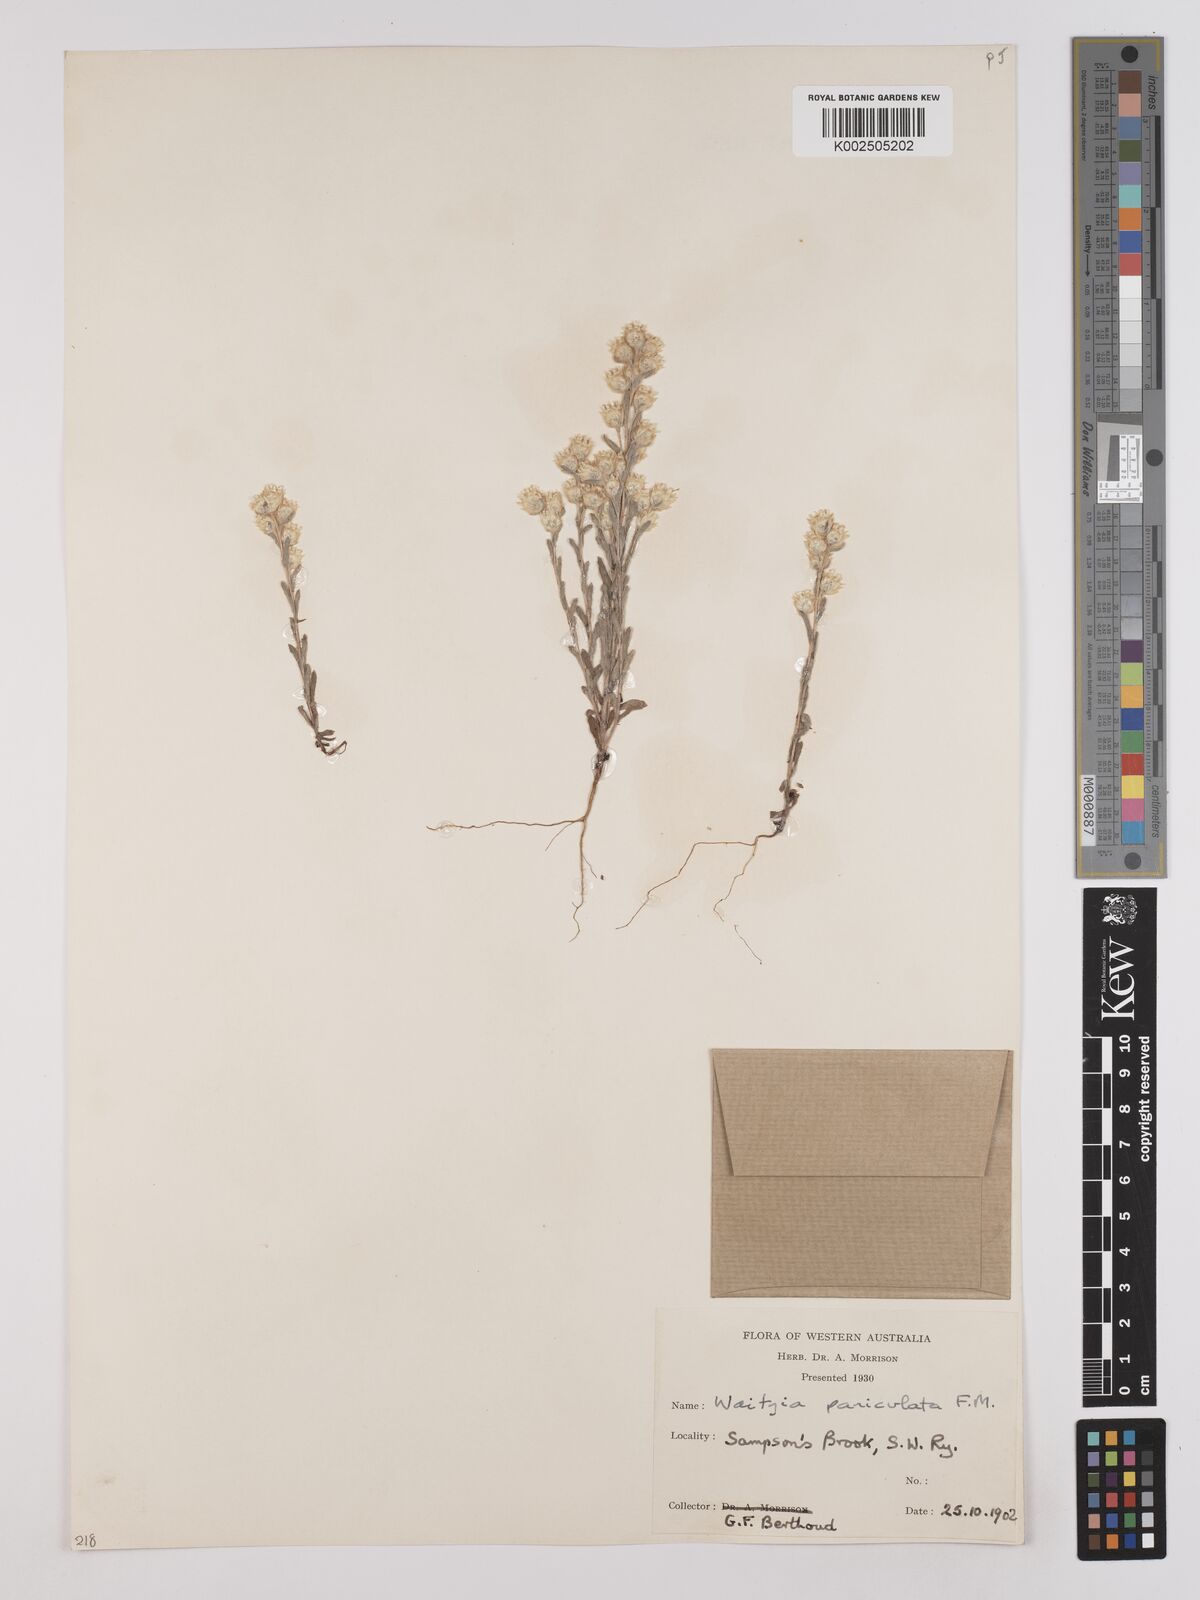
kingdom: Plantae
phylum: Tracheophyta
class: Magnoliopsida
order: Asterales
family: Asteraceae
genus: Pterochaeta
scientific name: Pterochaeta paniculata
